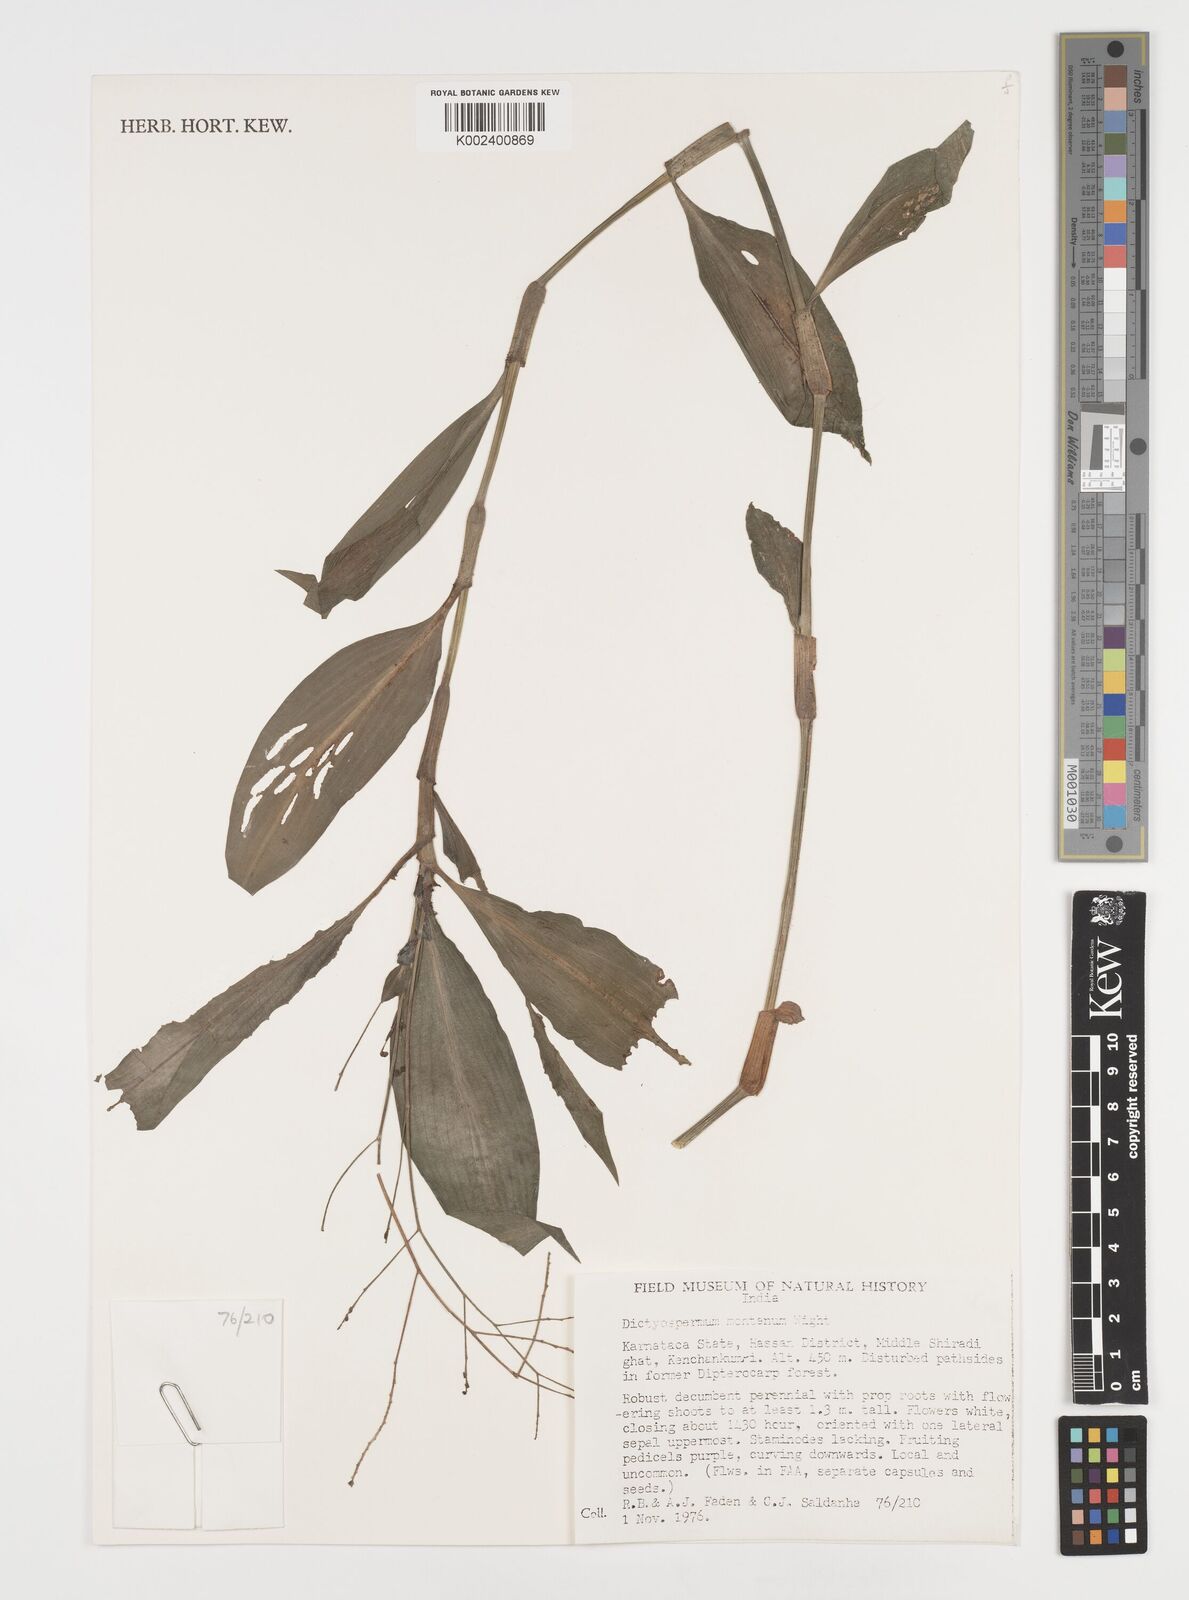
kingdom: Plantae
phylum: Tracheophyta
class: Liliopsida
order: Commelinales
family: Commelinaceae
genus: Dictyospermum
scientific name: Dictyospermum montanum
